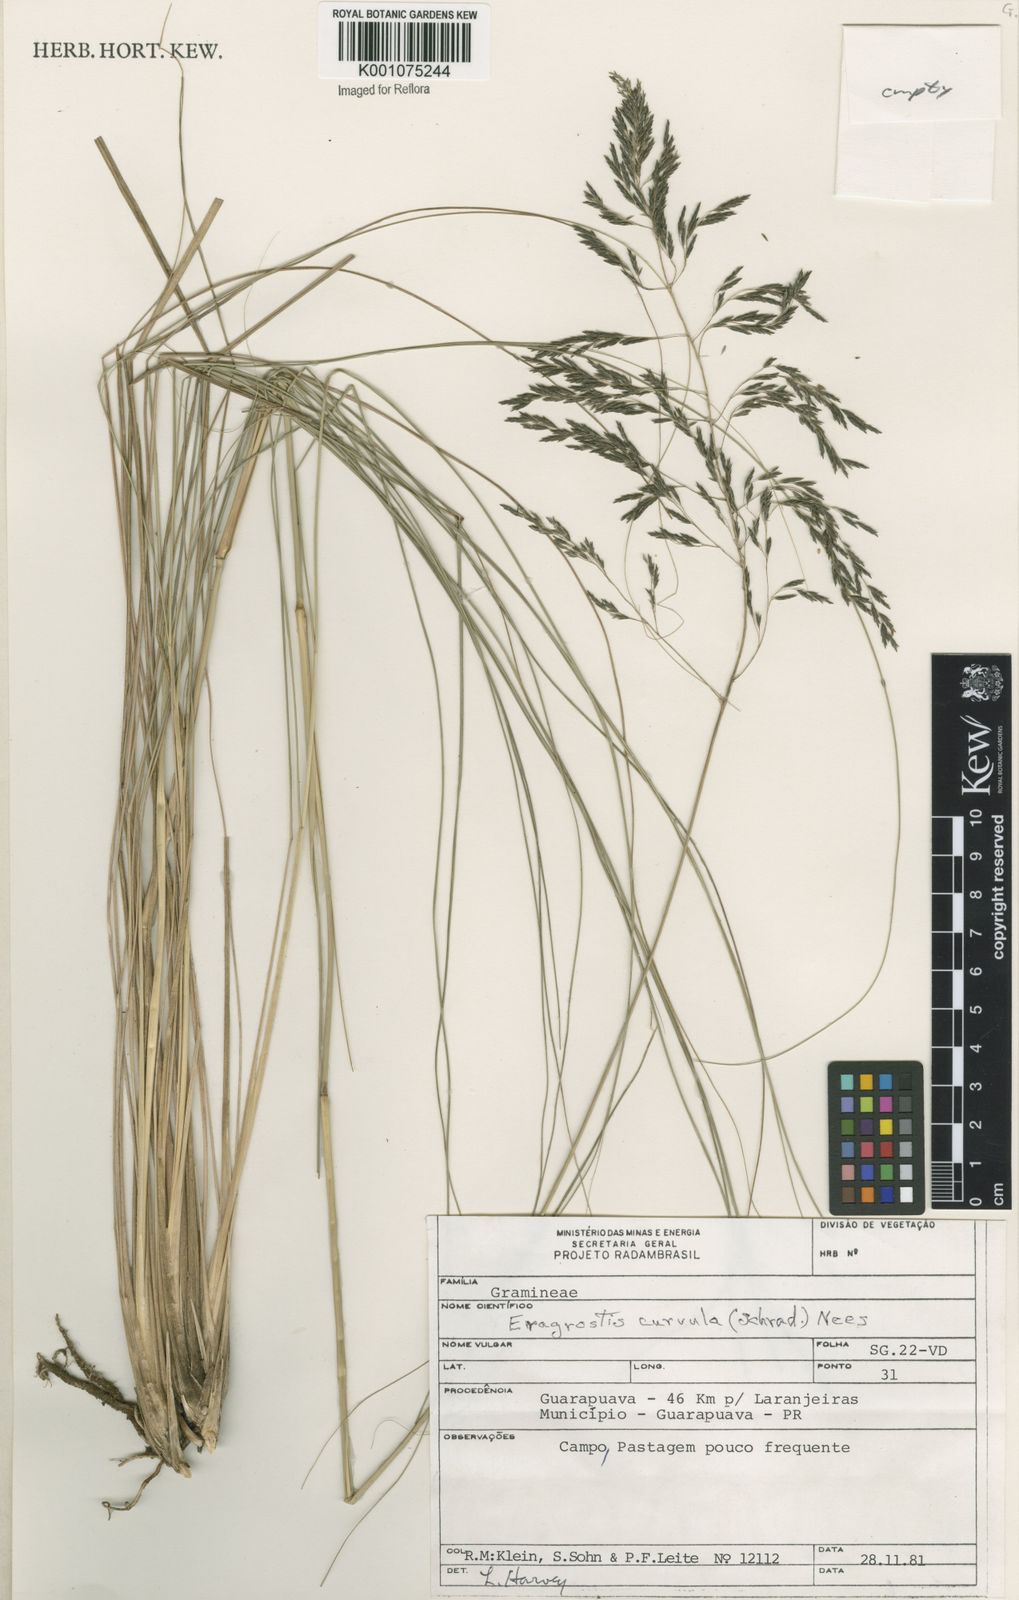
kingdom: Plantae
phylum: Tracheophyta
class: Liliopsida
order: Poales
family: Poaceae
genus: Eragrostis
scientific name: Eragrostis curvula
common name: African love-grass
